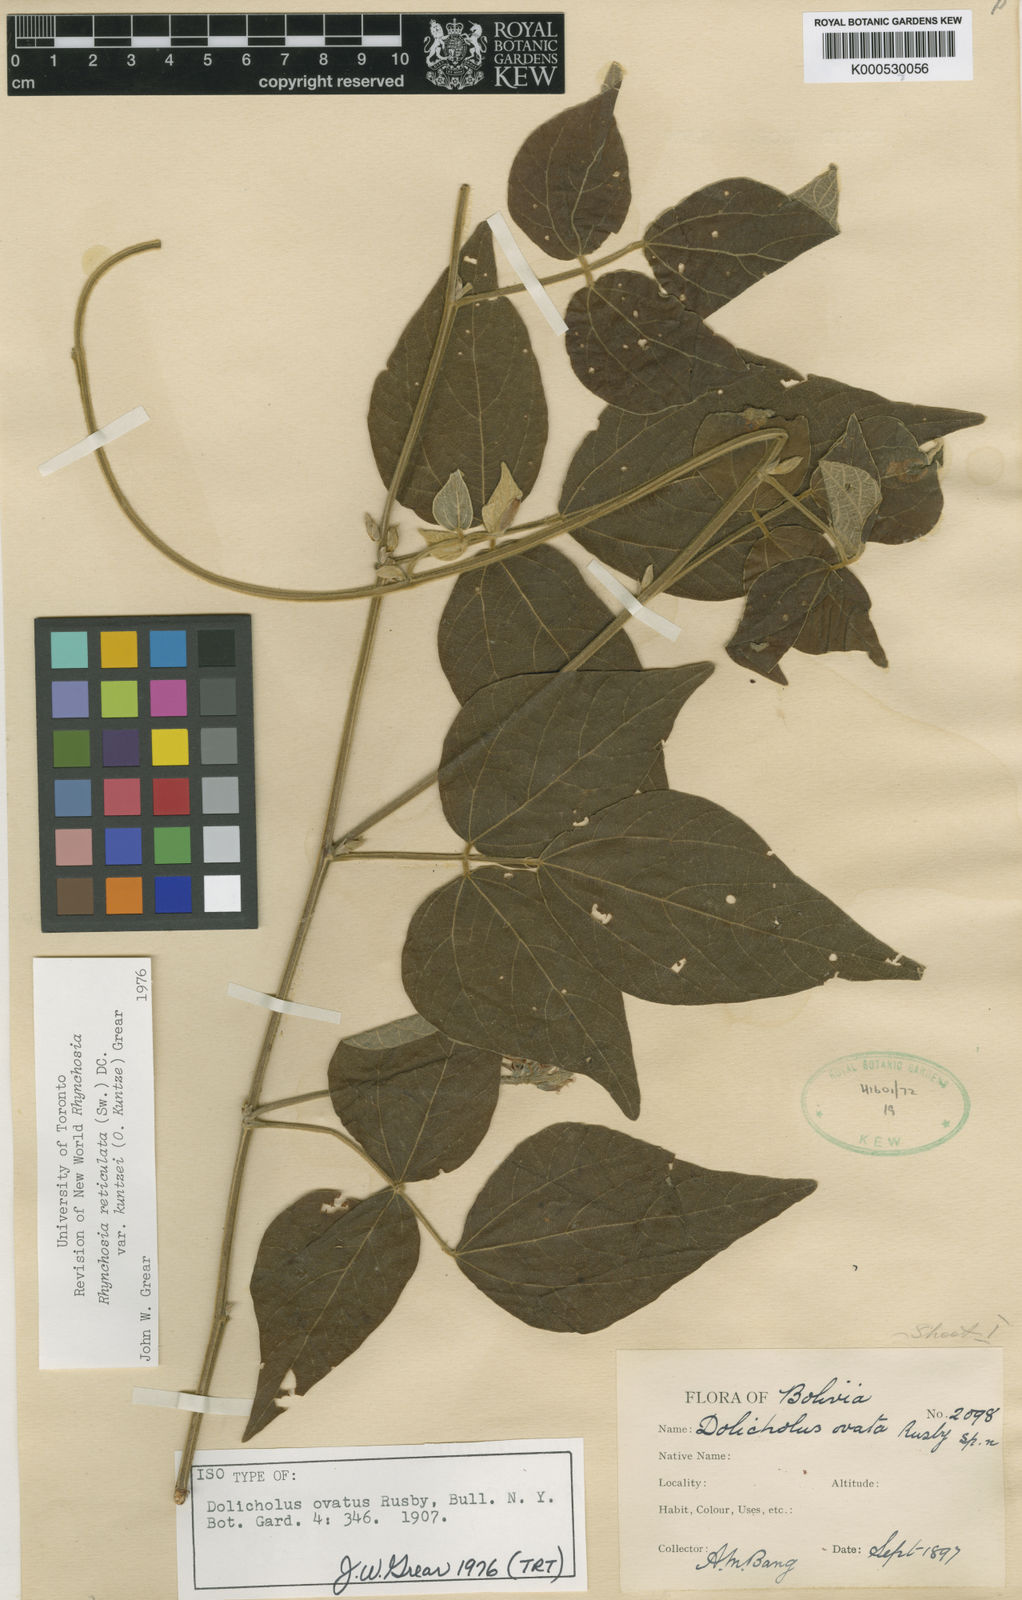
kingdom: Plantae
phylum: Tracheophyta
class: Magnoliopsida
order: Fabales
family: Fabaceae
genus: Rhynchosia
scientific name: Rhynchosia reticulata
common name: Pea withe
